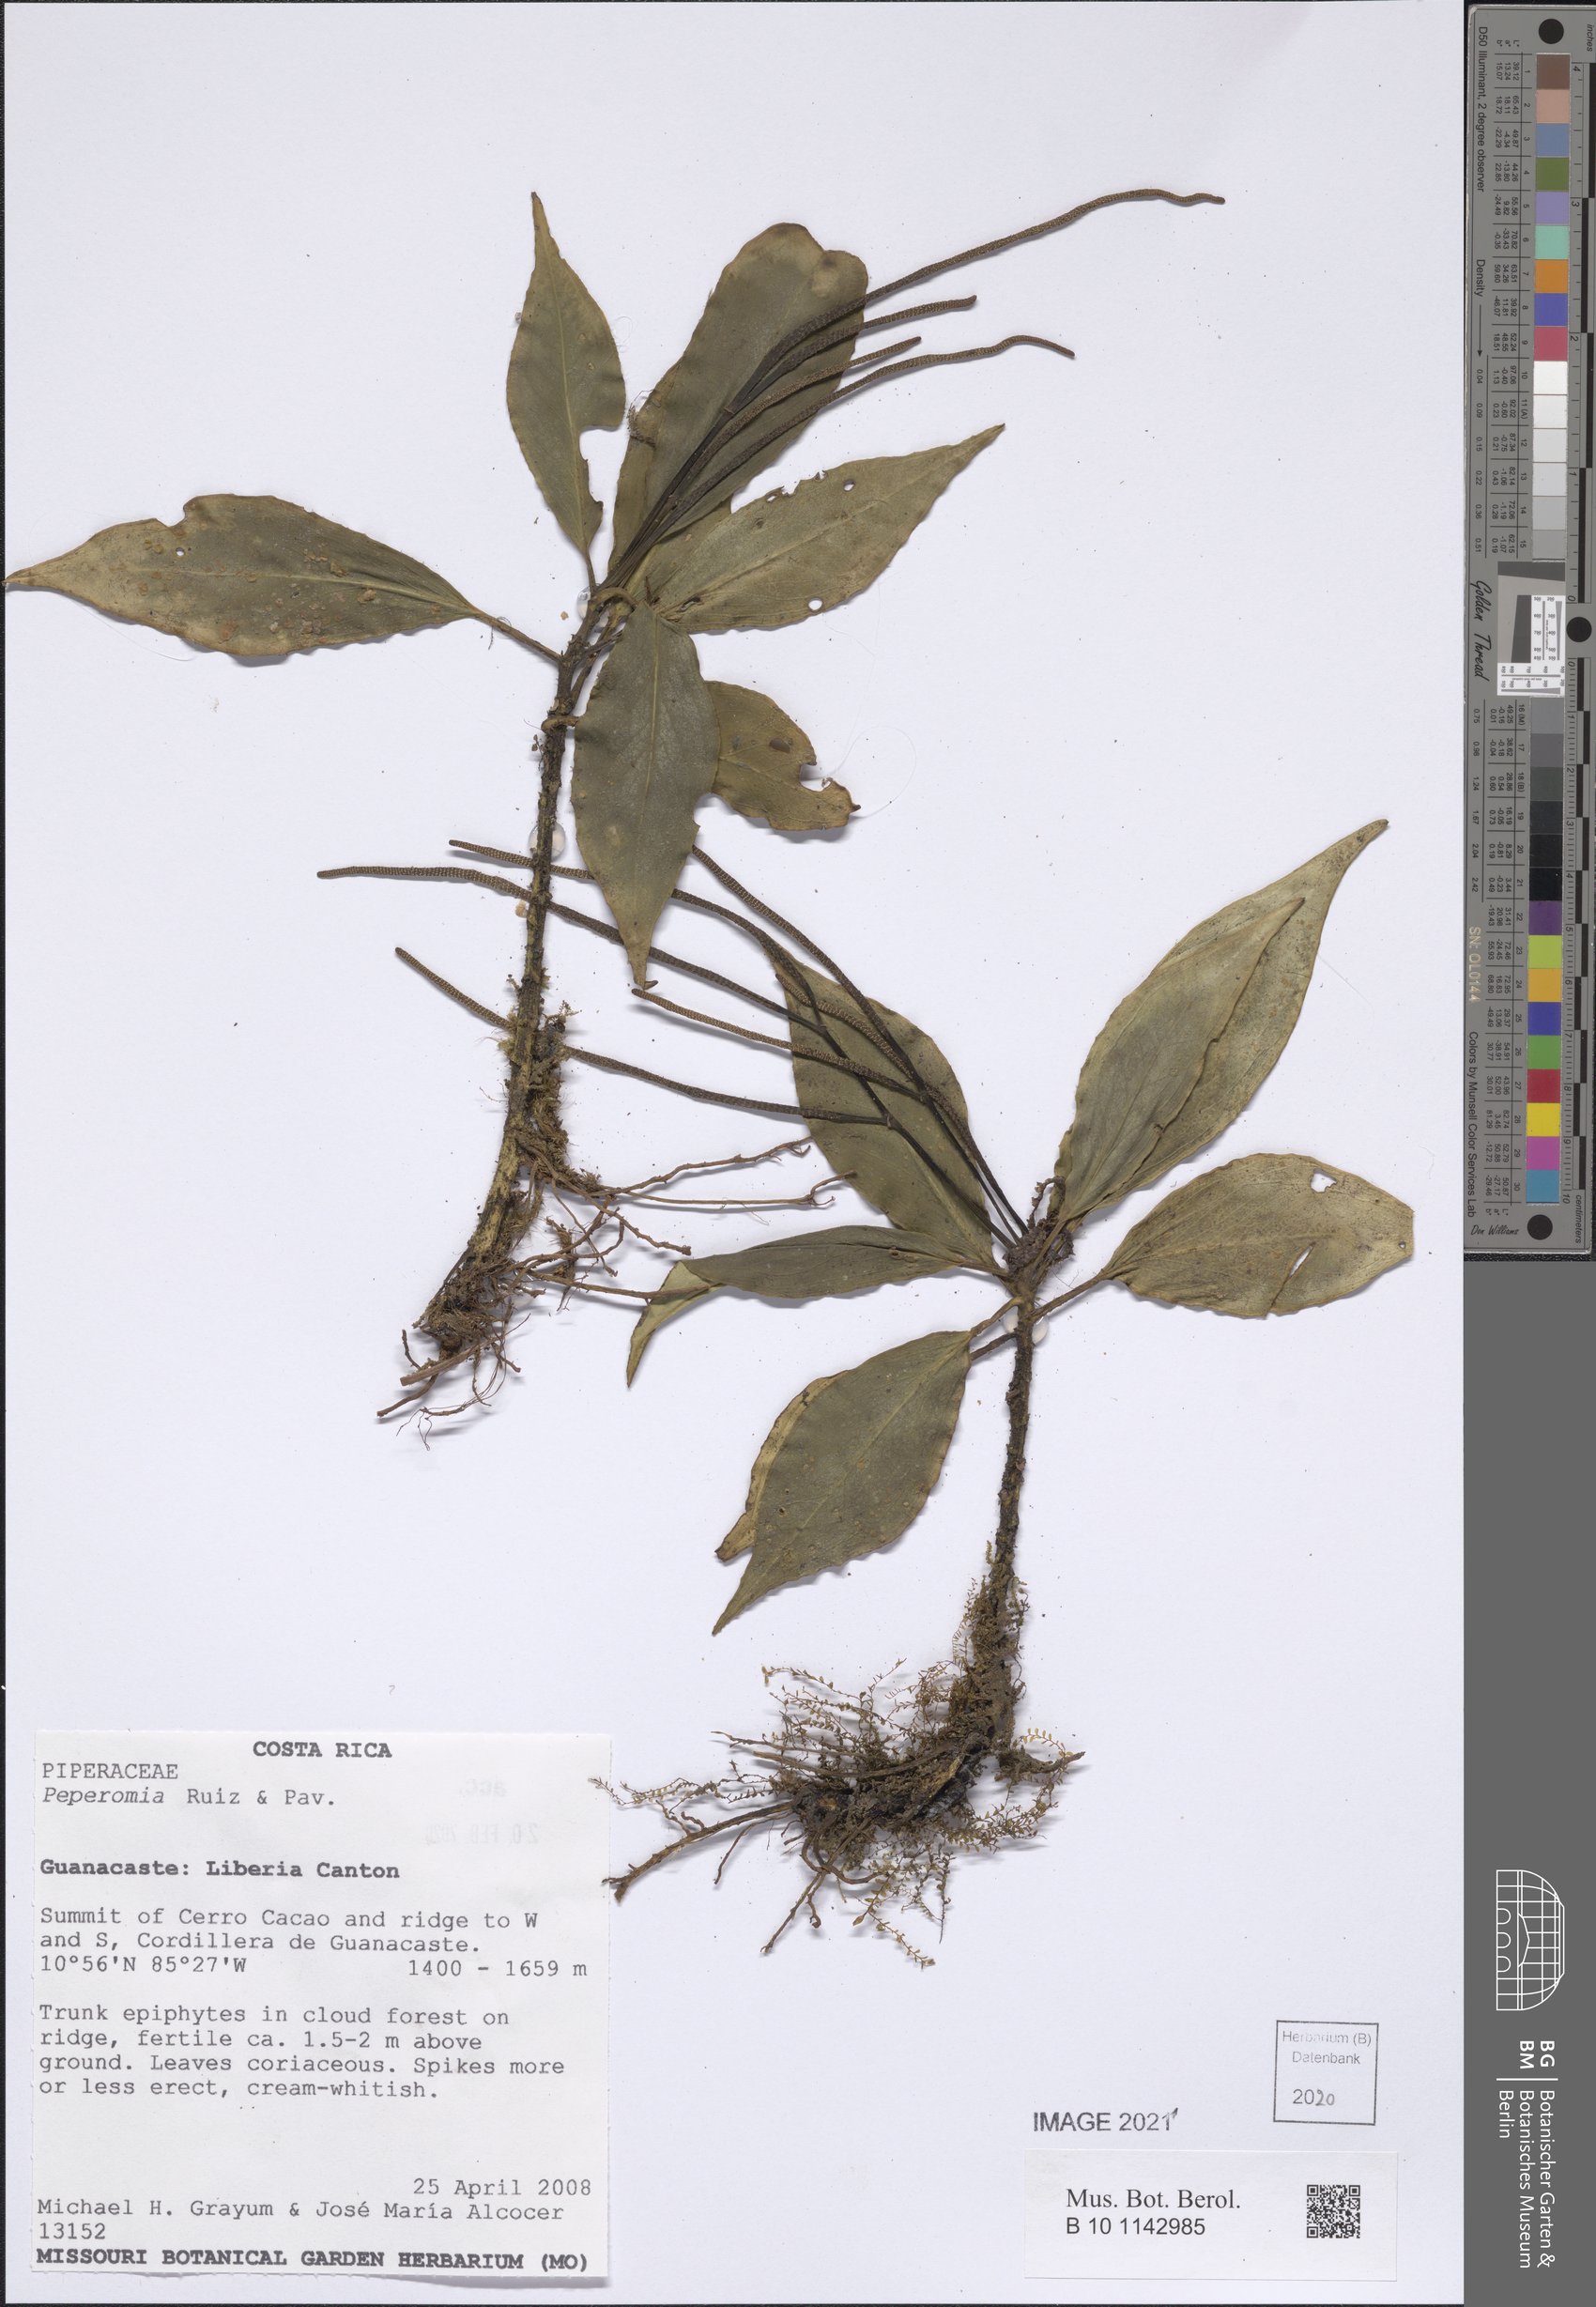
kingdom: Plantae
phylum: Tracheophyta
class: Magnoliopsida
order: Piperales
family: Piperaceae
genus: Peperomia
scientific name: Peperomia
